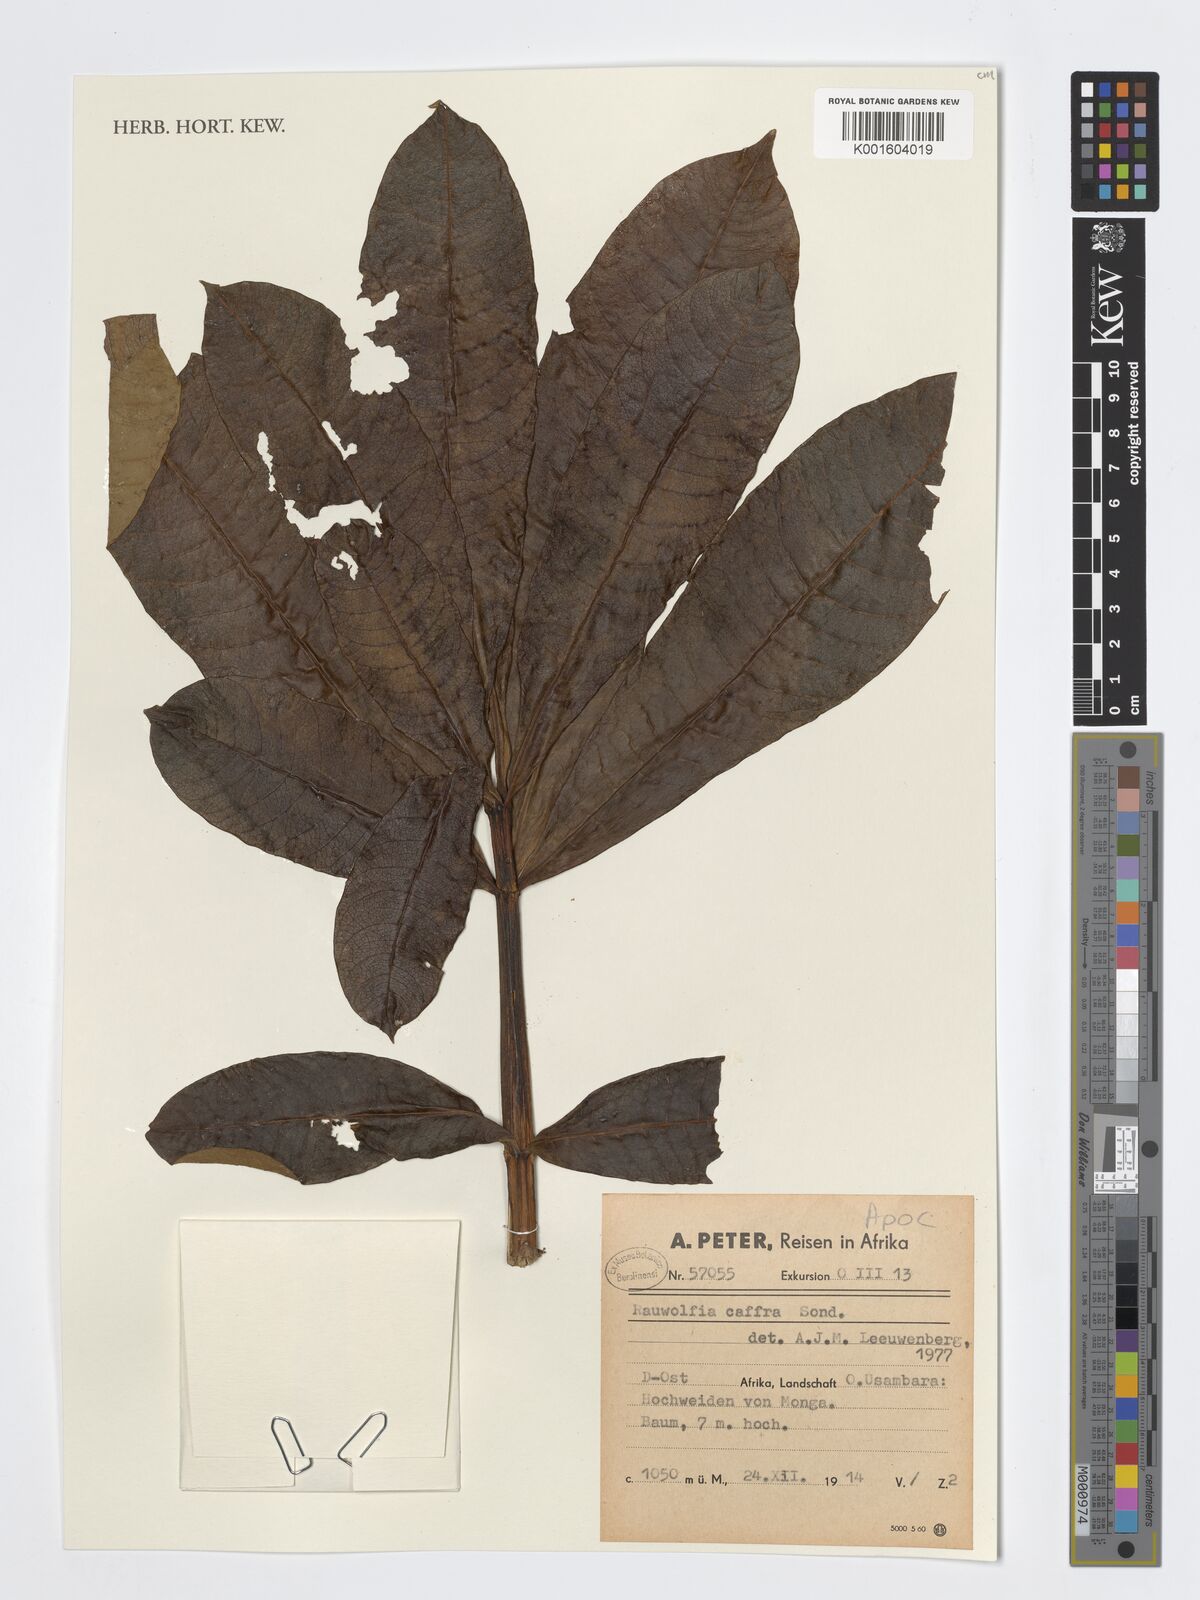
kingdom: Plantae
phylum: Tracheophyta
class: Magnoliopsida
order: Gentianales
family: Apocynaceae
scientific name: Apocynaceae
